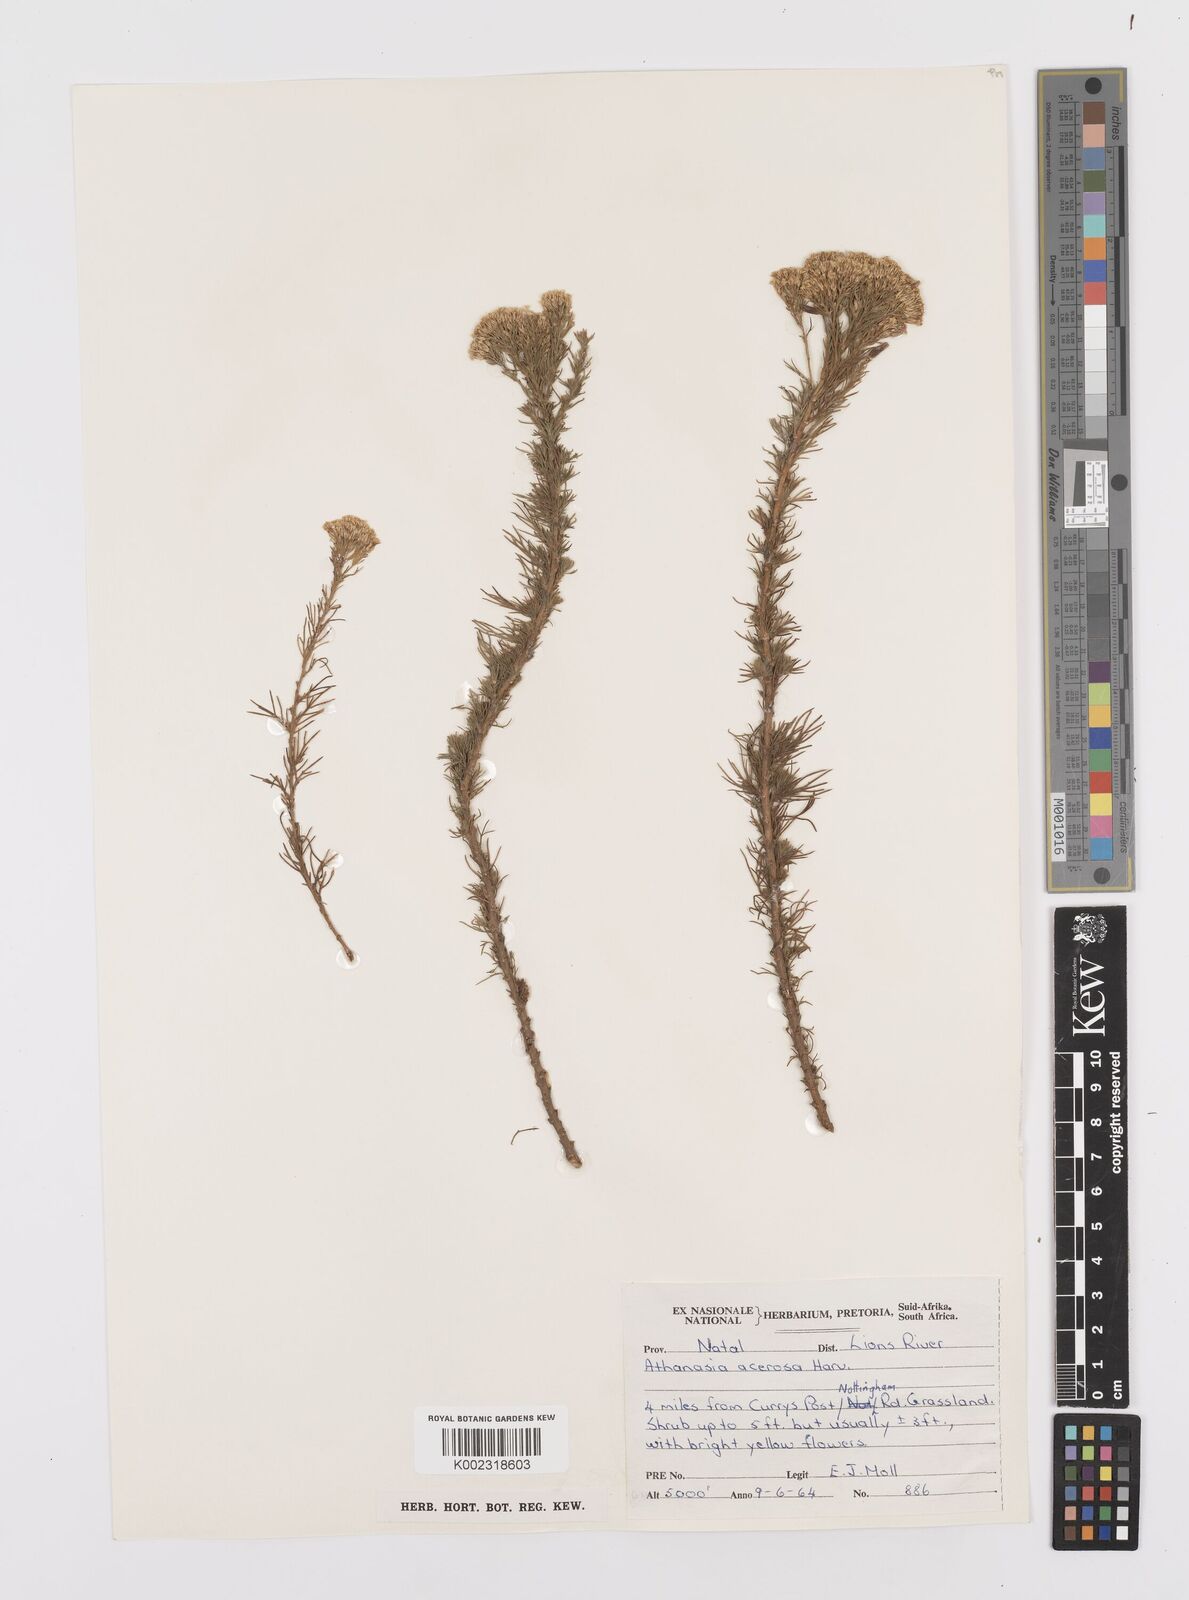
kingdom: Plantae
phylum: Tracheophyta
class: Magnoliopsida
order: Asterales
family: Asteraceae
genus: Phymaspermum
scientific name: Phymaspermum acerosum
